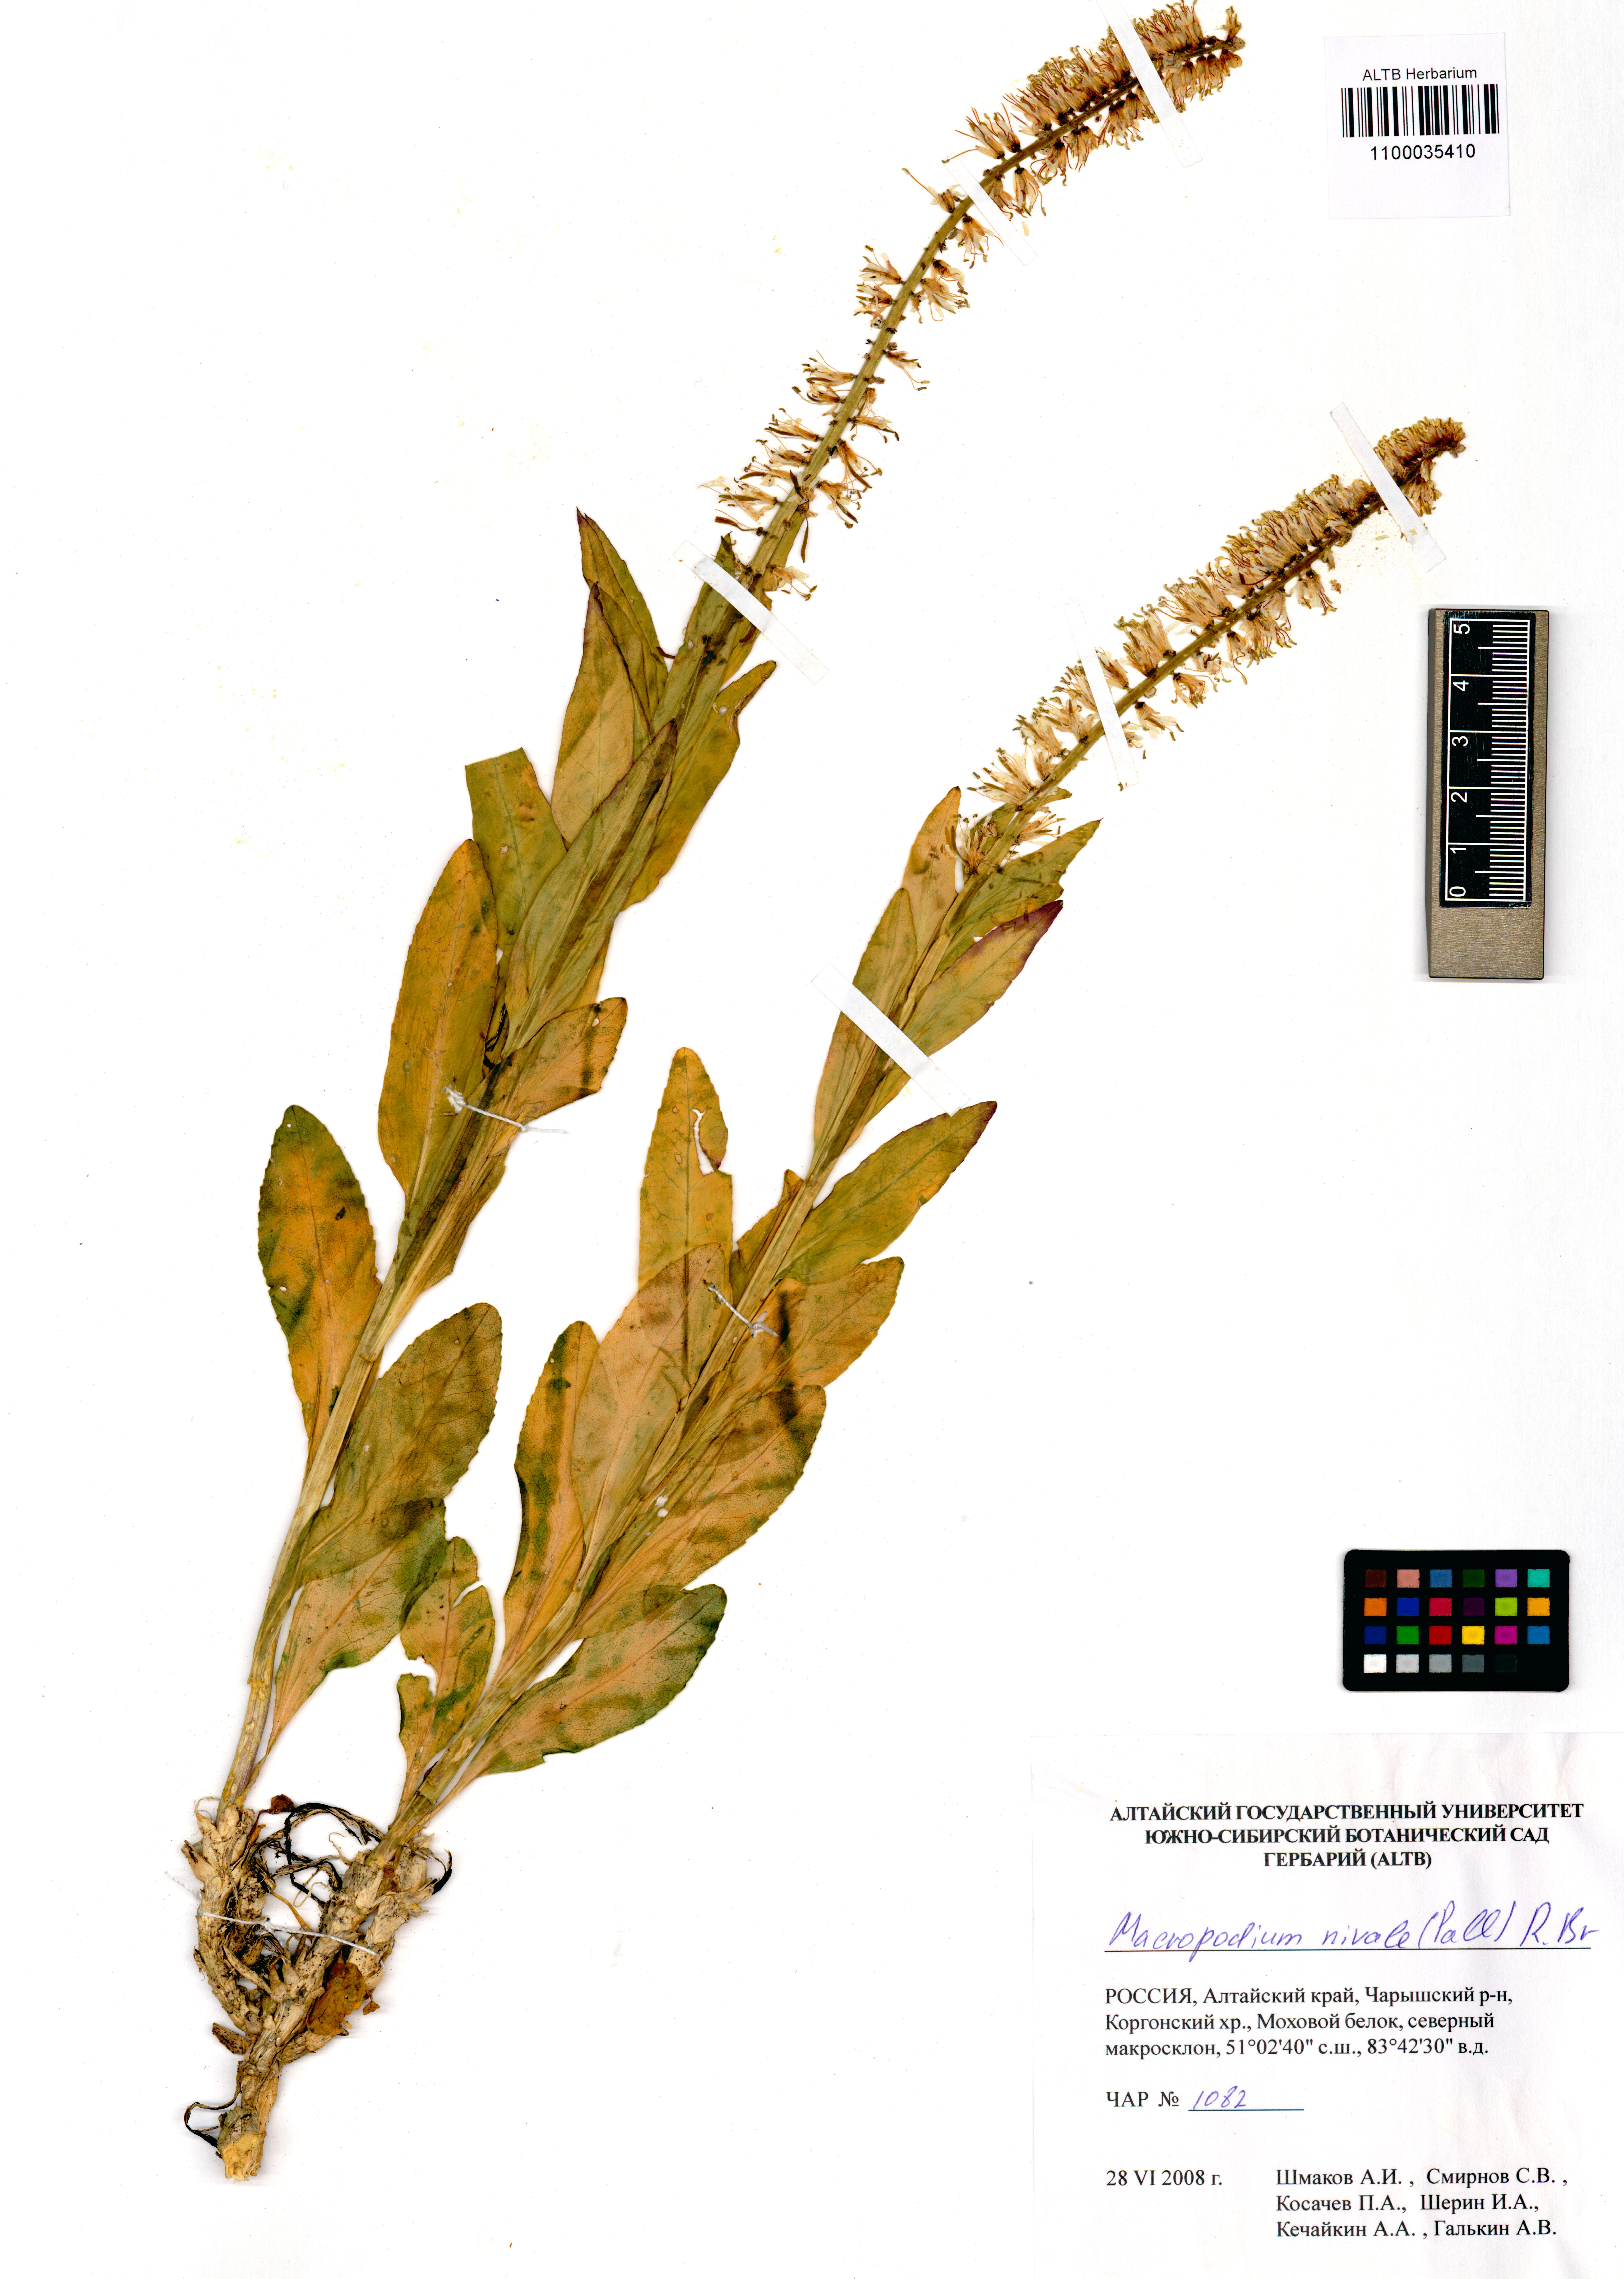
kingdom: Plantae
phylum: Tracheophyta
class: Magnoliopsida
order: Brassicales
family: Brassicaceae
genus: Macropodium
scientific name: Macropodium nivale
